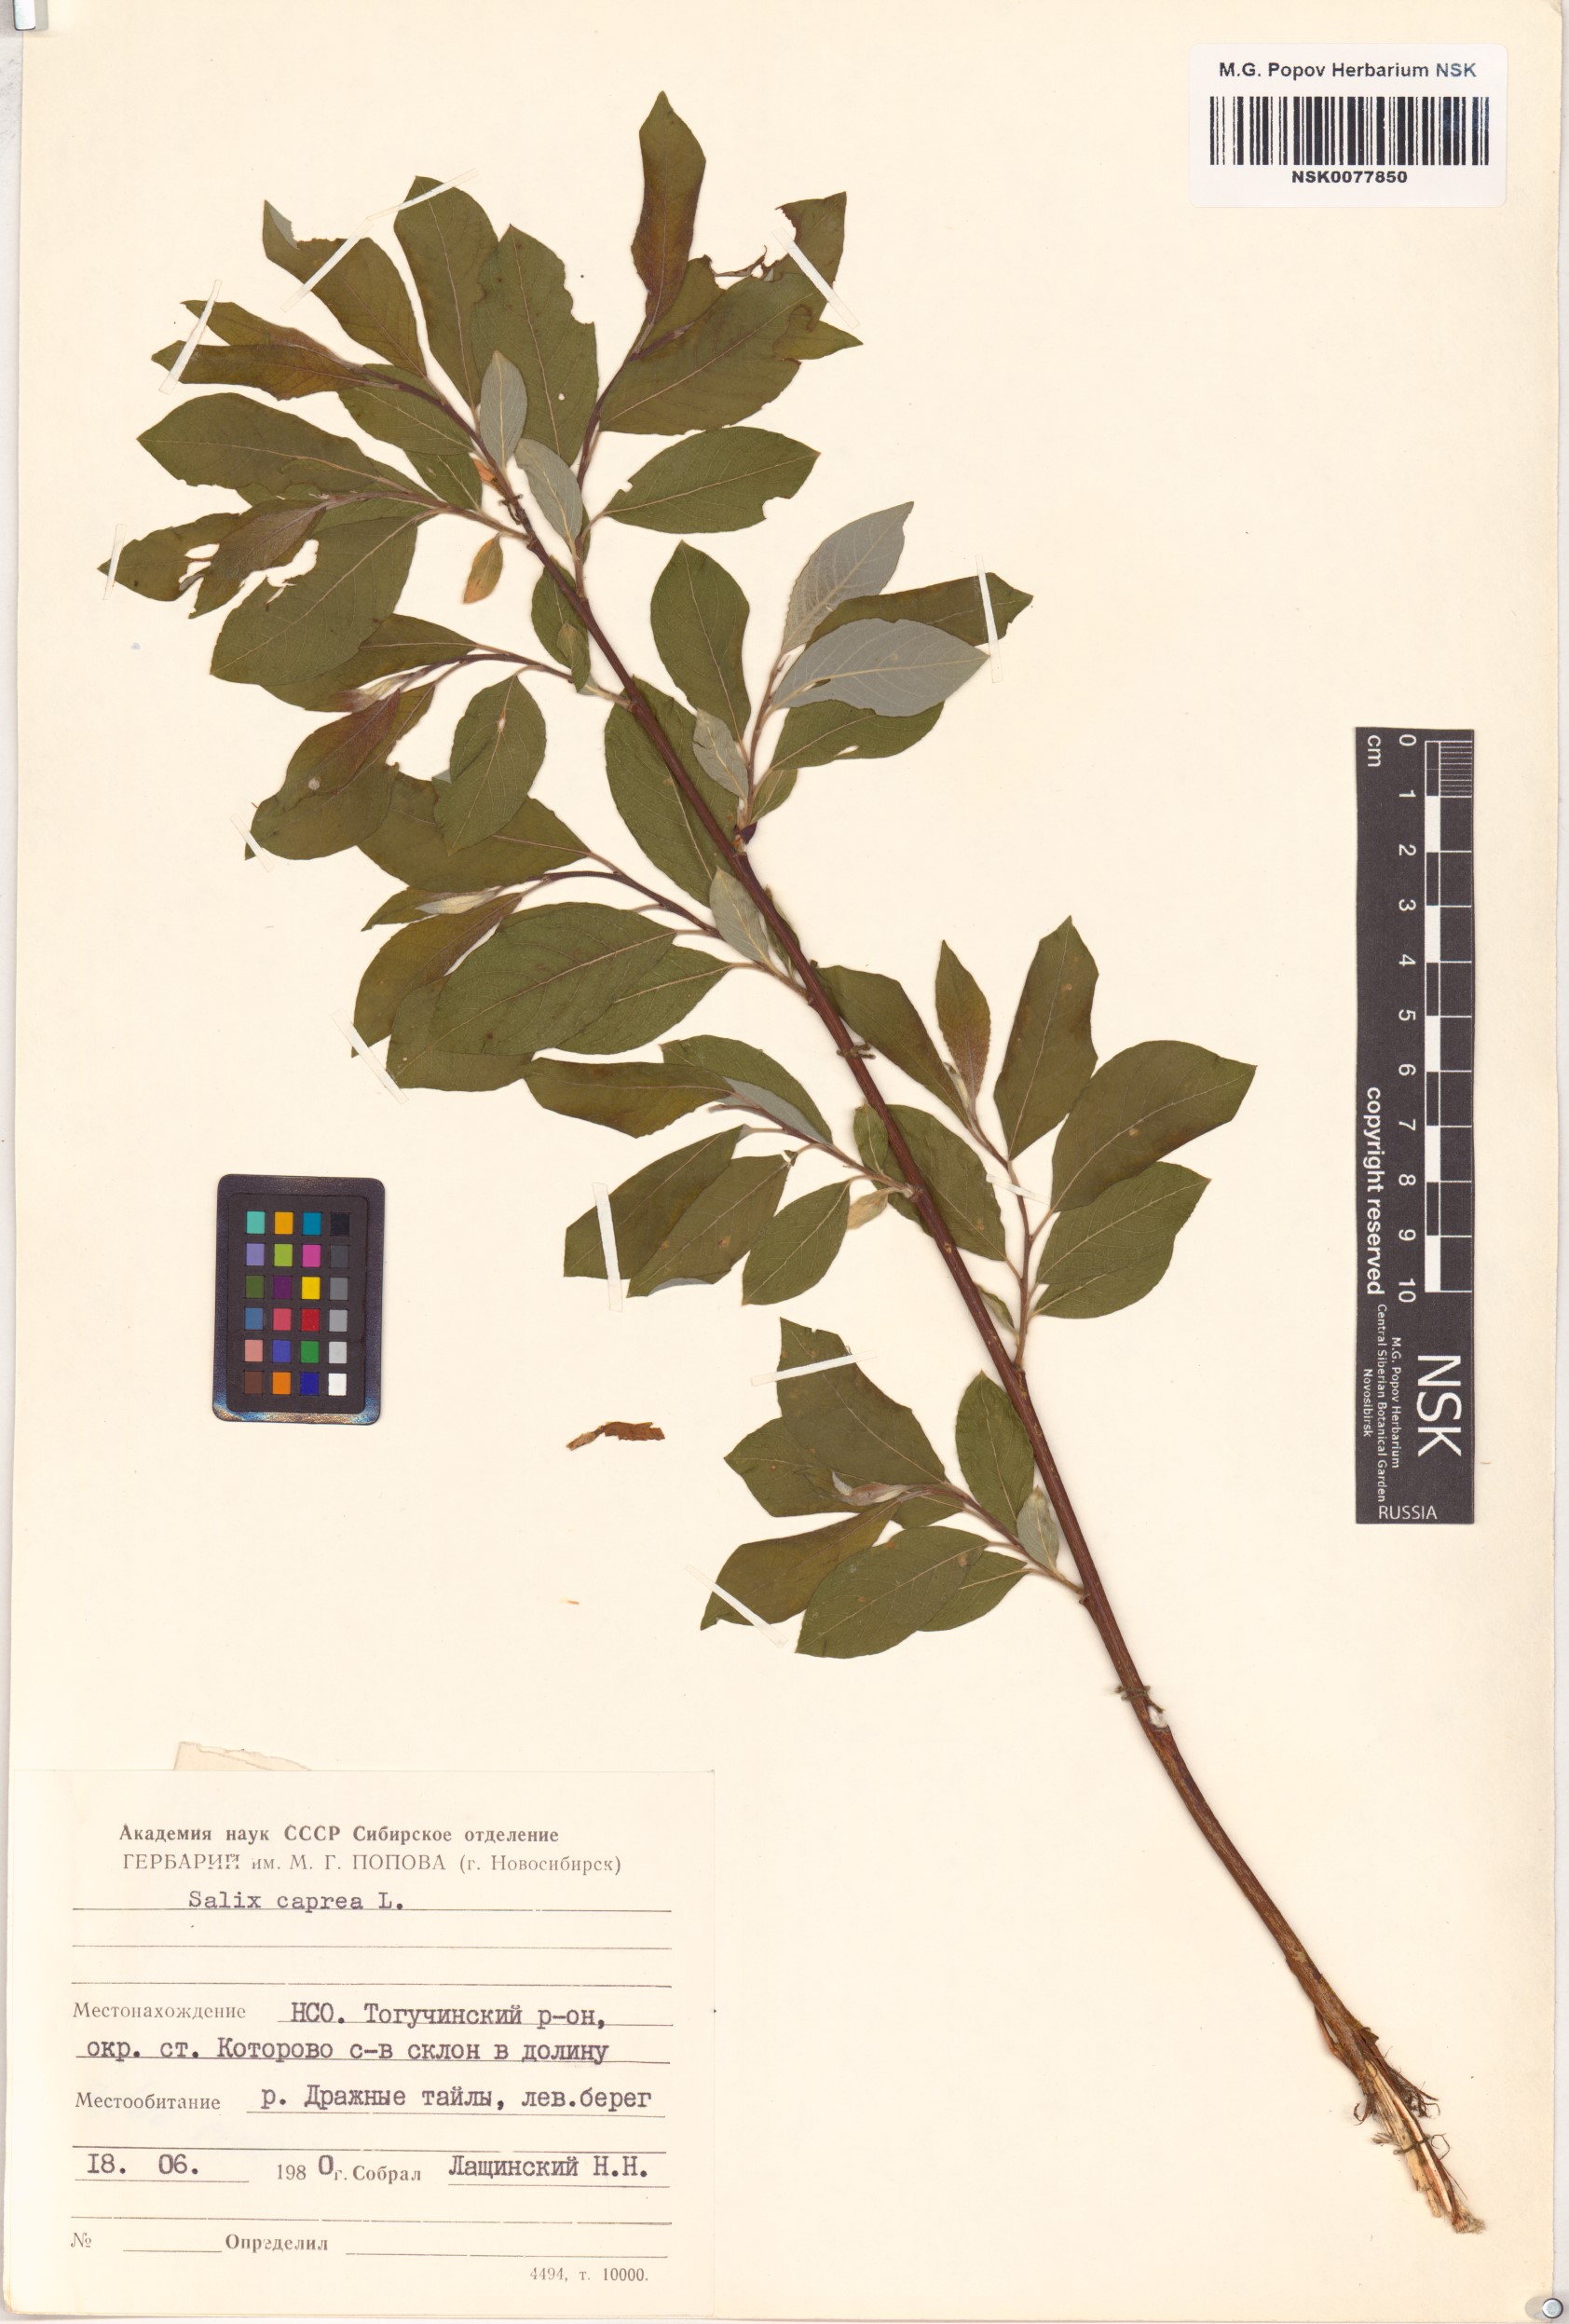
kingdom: Plantae
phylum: Tracheophyta
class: Magnoliopsida
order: Malpighiales
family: Salicaceae
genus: Salix
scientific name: Salix caprea
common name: Goat willow
